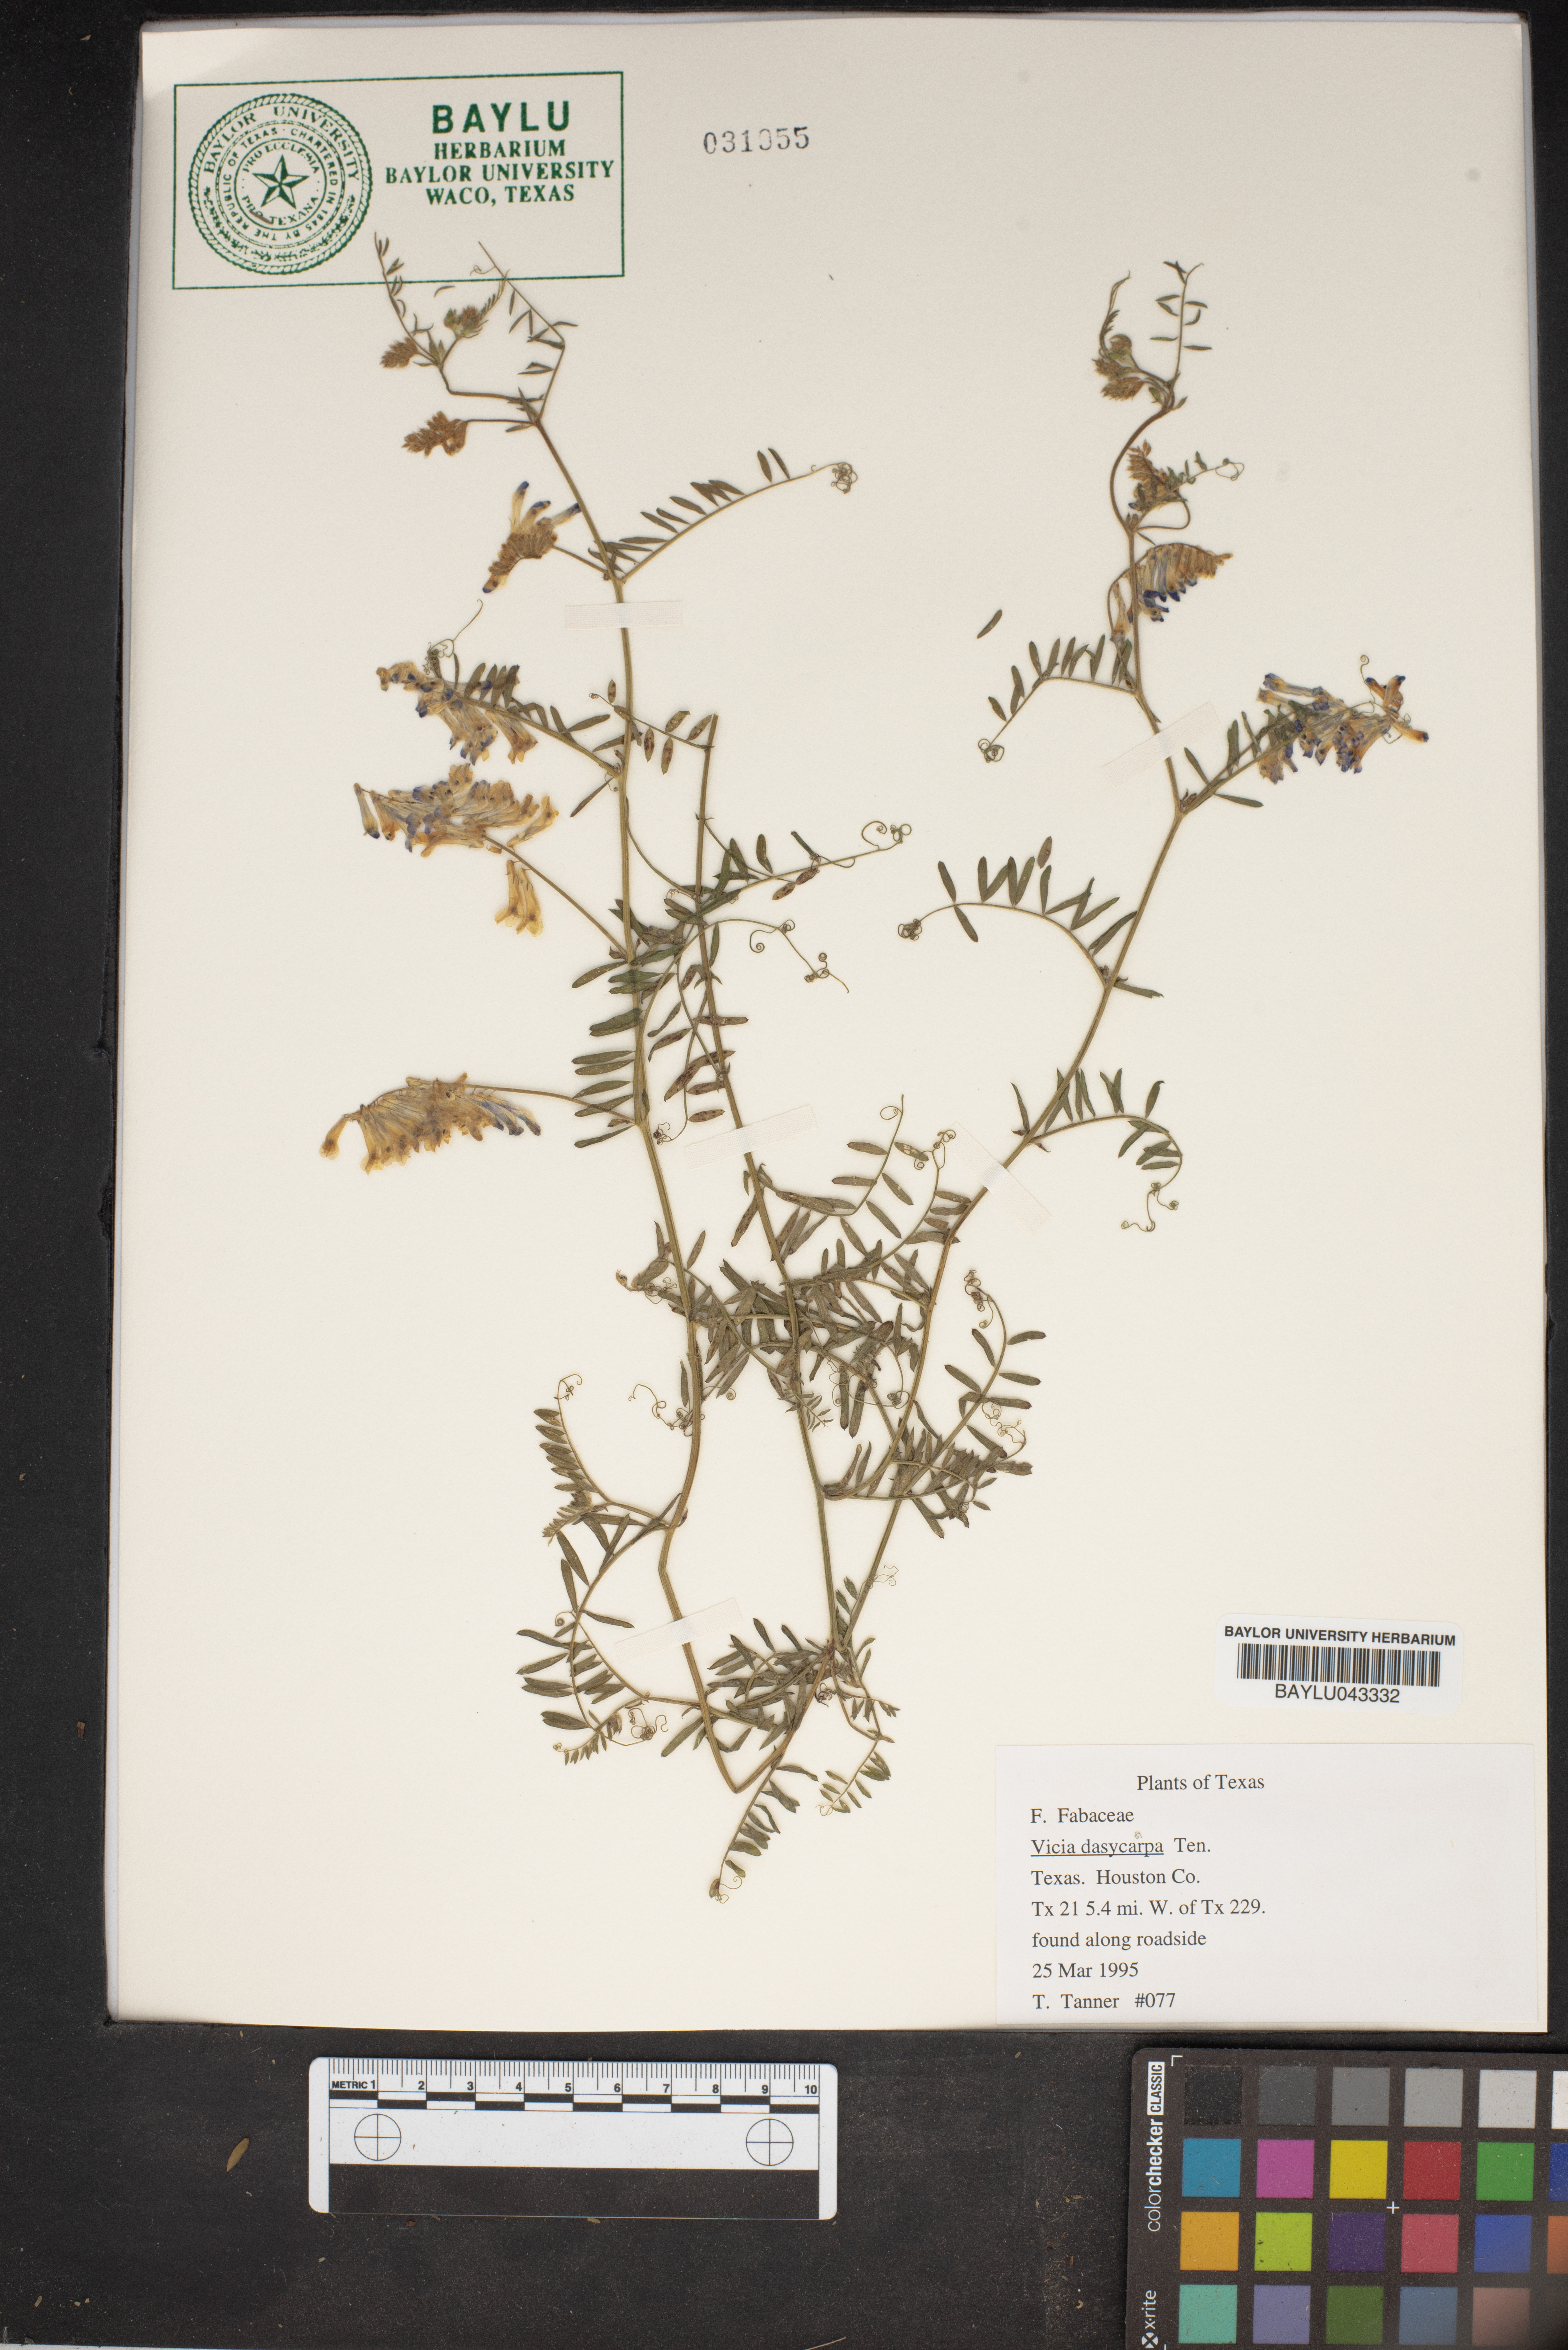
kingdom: Plantae
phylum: Tracheophyta
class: Magnoliopsida
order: Fabales
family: Fabaceae
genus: Vicia
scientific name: Vicia villosa
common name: Fodder vetch
